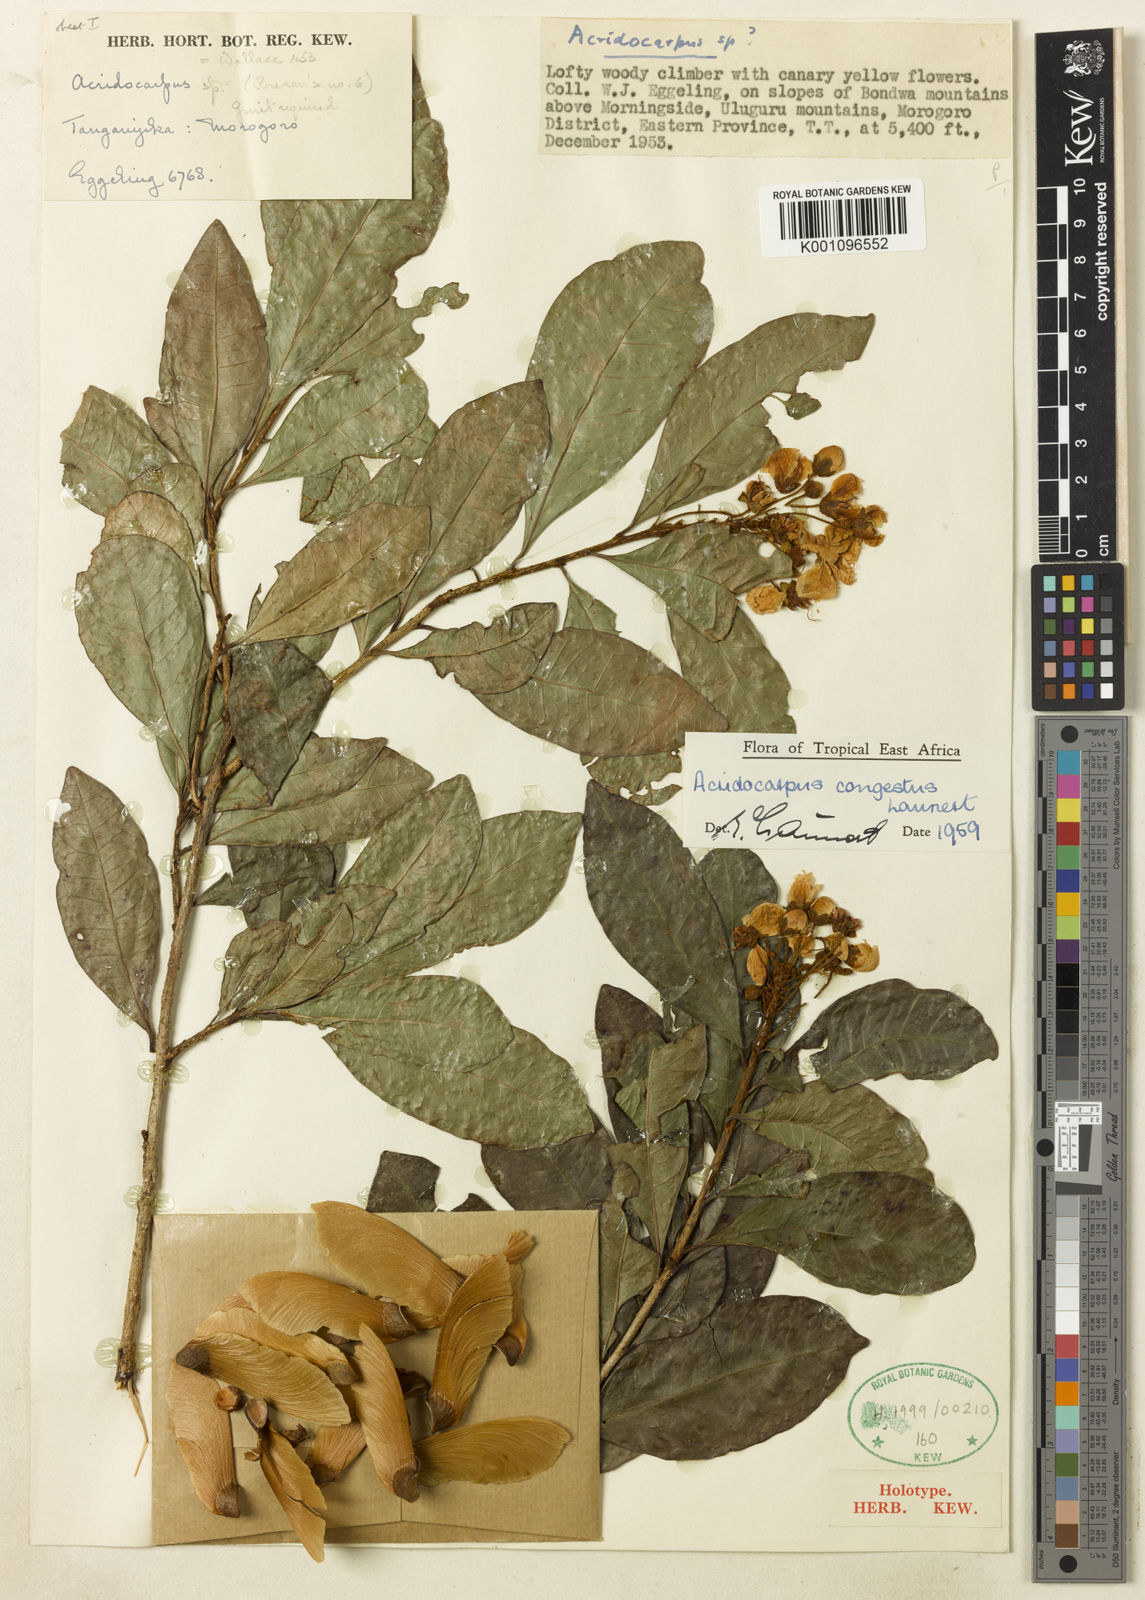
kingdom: Plantae
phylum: Tracheophyta
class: Magnoliopsida
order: Malpighiales
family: Malpighiaceae
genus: Acridocarpus
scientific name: Acridocarpus congestus
